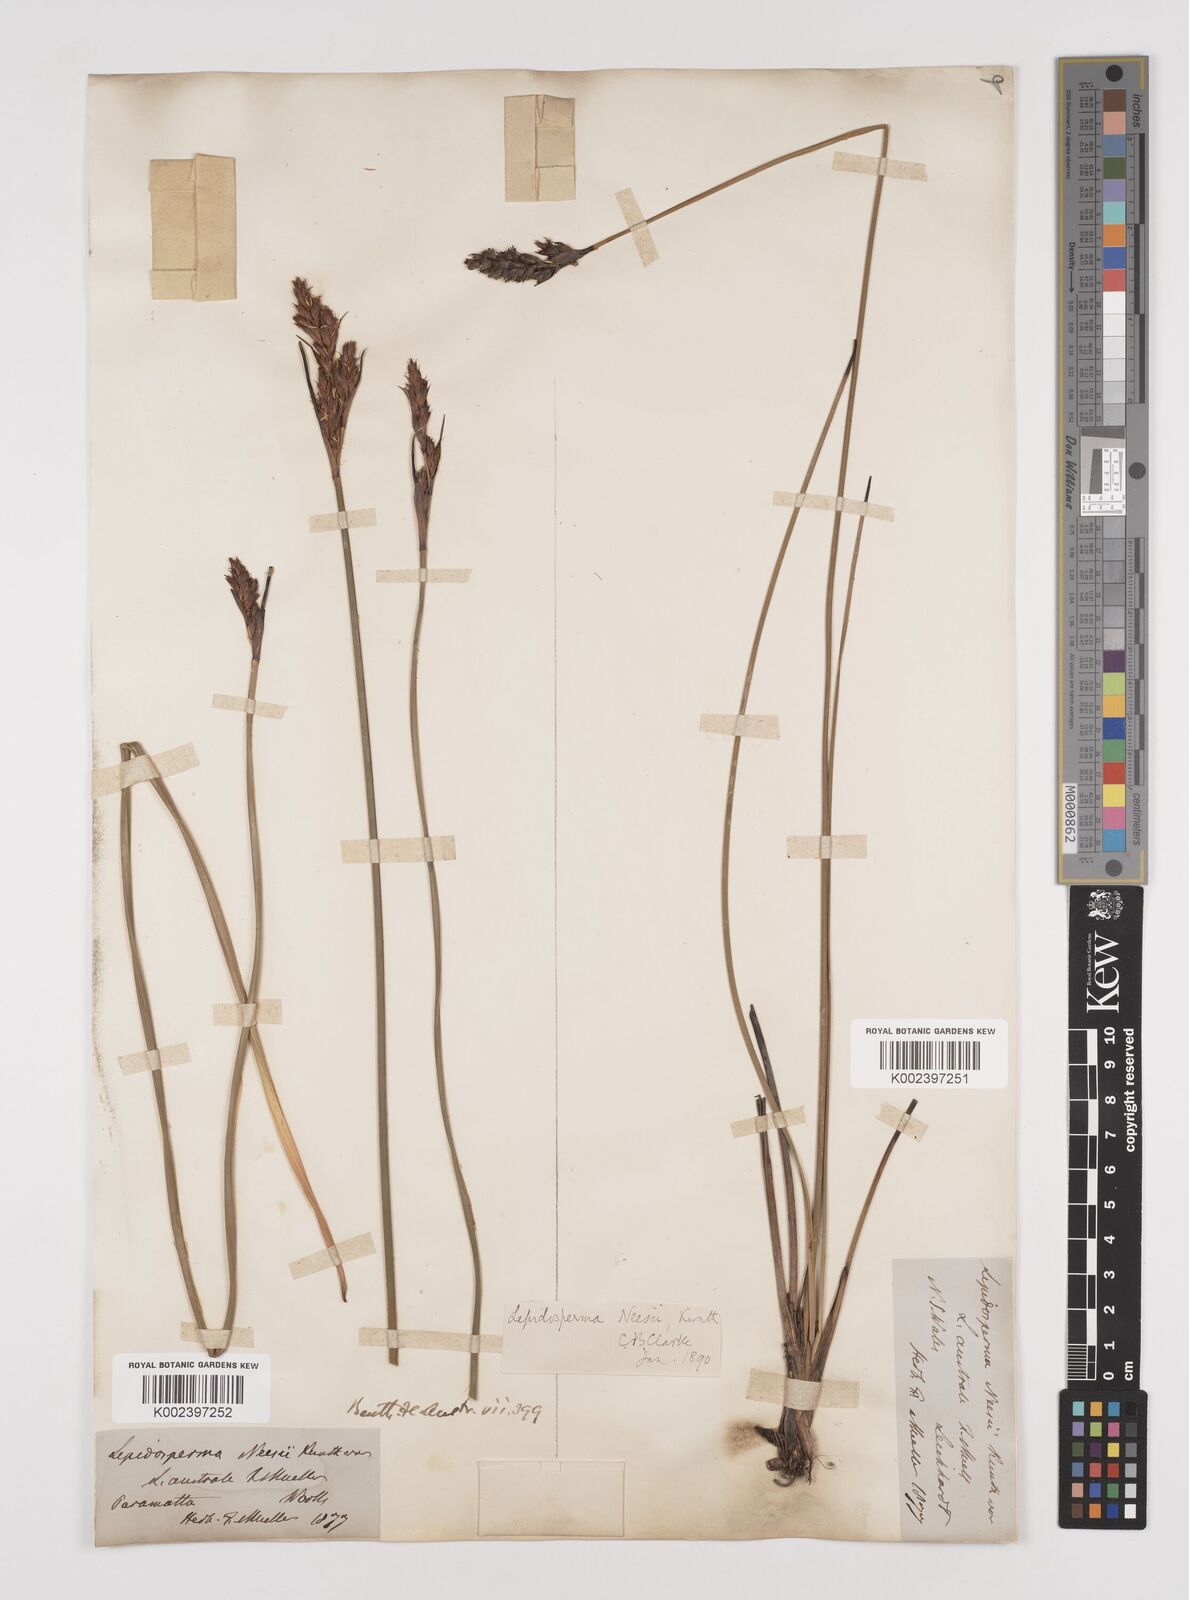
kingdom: Plantae
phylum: Tracheophyta
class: Liliopsida
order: Poales
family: Cyperaceae
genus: Lepidosperma
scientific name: Lepidosperma quadrangulatum
